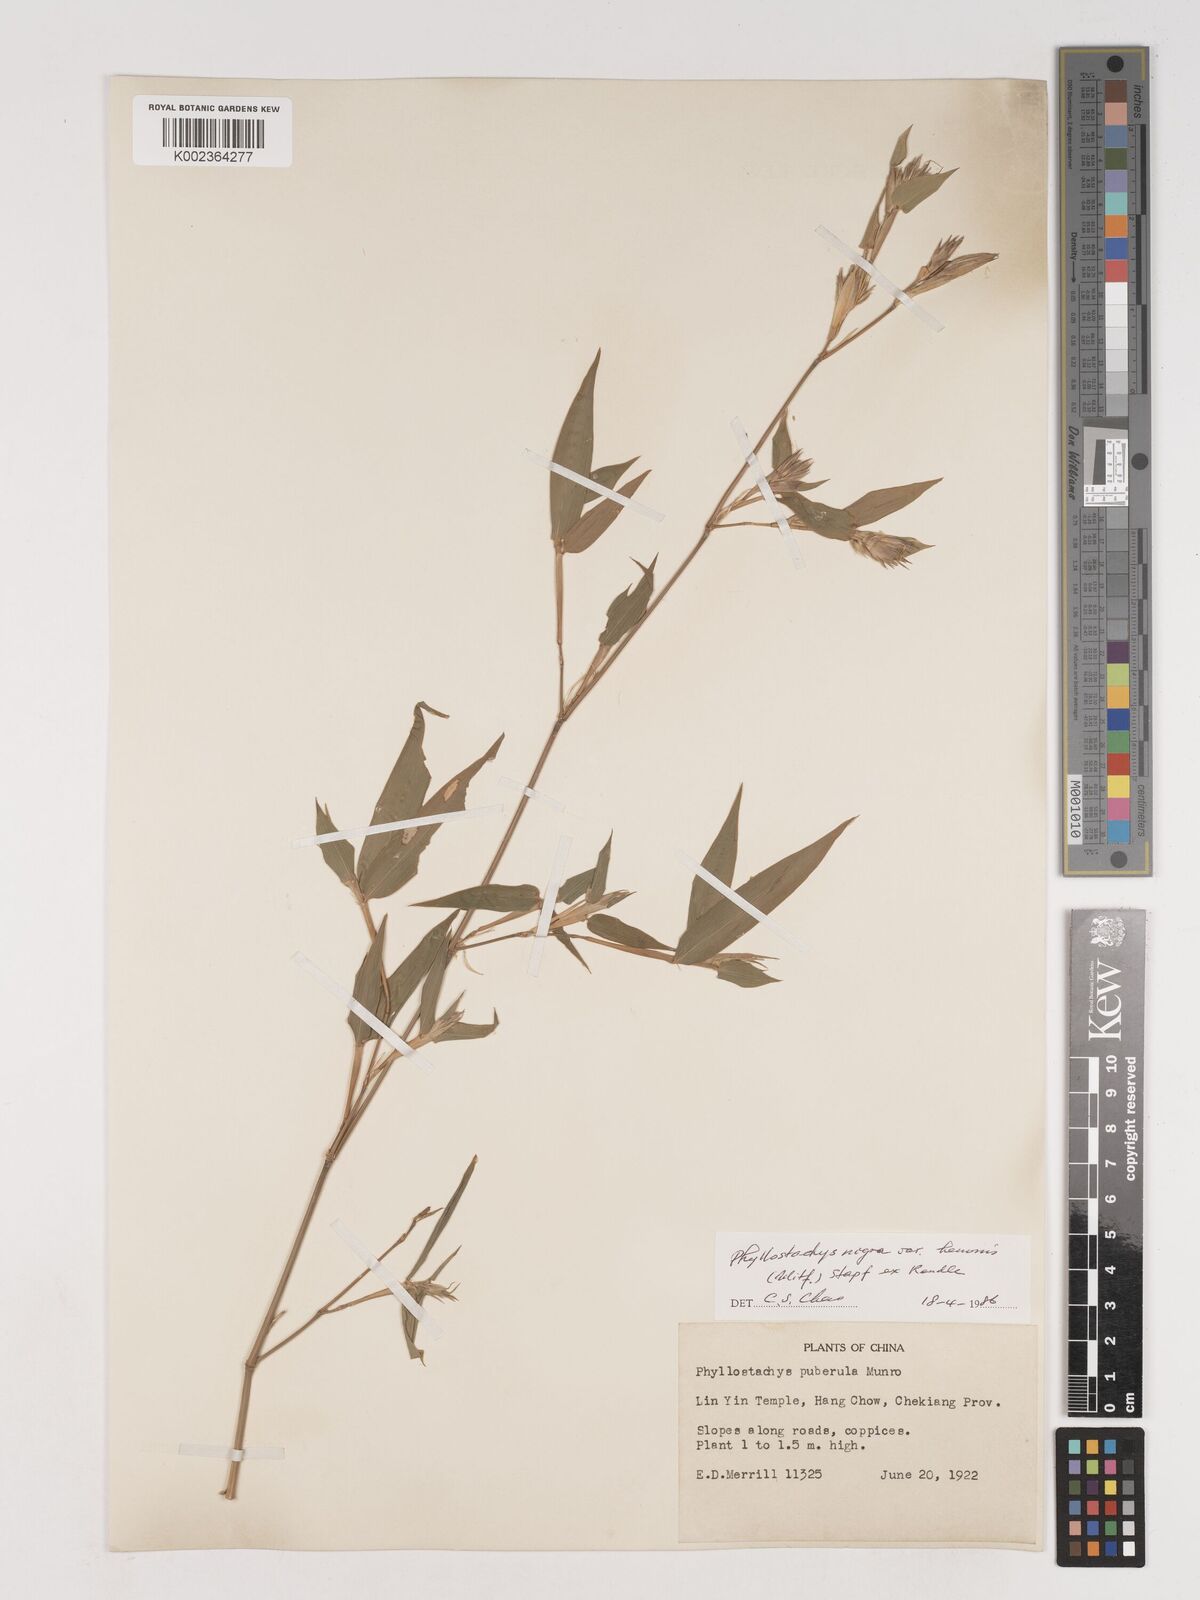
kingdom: Plantae
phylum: Tracheophyta
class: Liliopsida
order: Poales
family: Poaceae
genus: Phyllostachys
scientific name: Phyllostachys nigra
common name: Black bamboo
